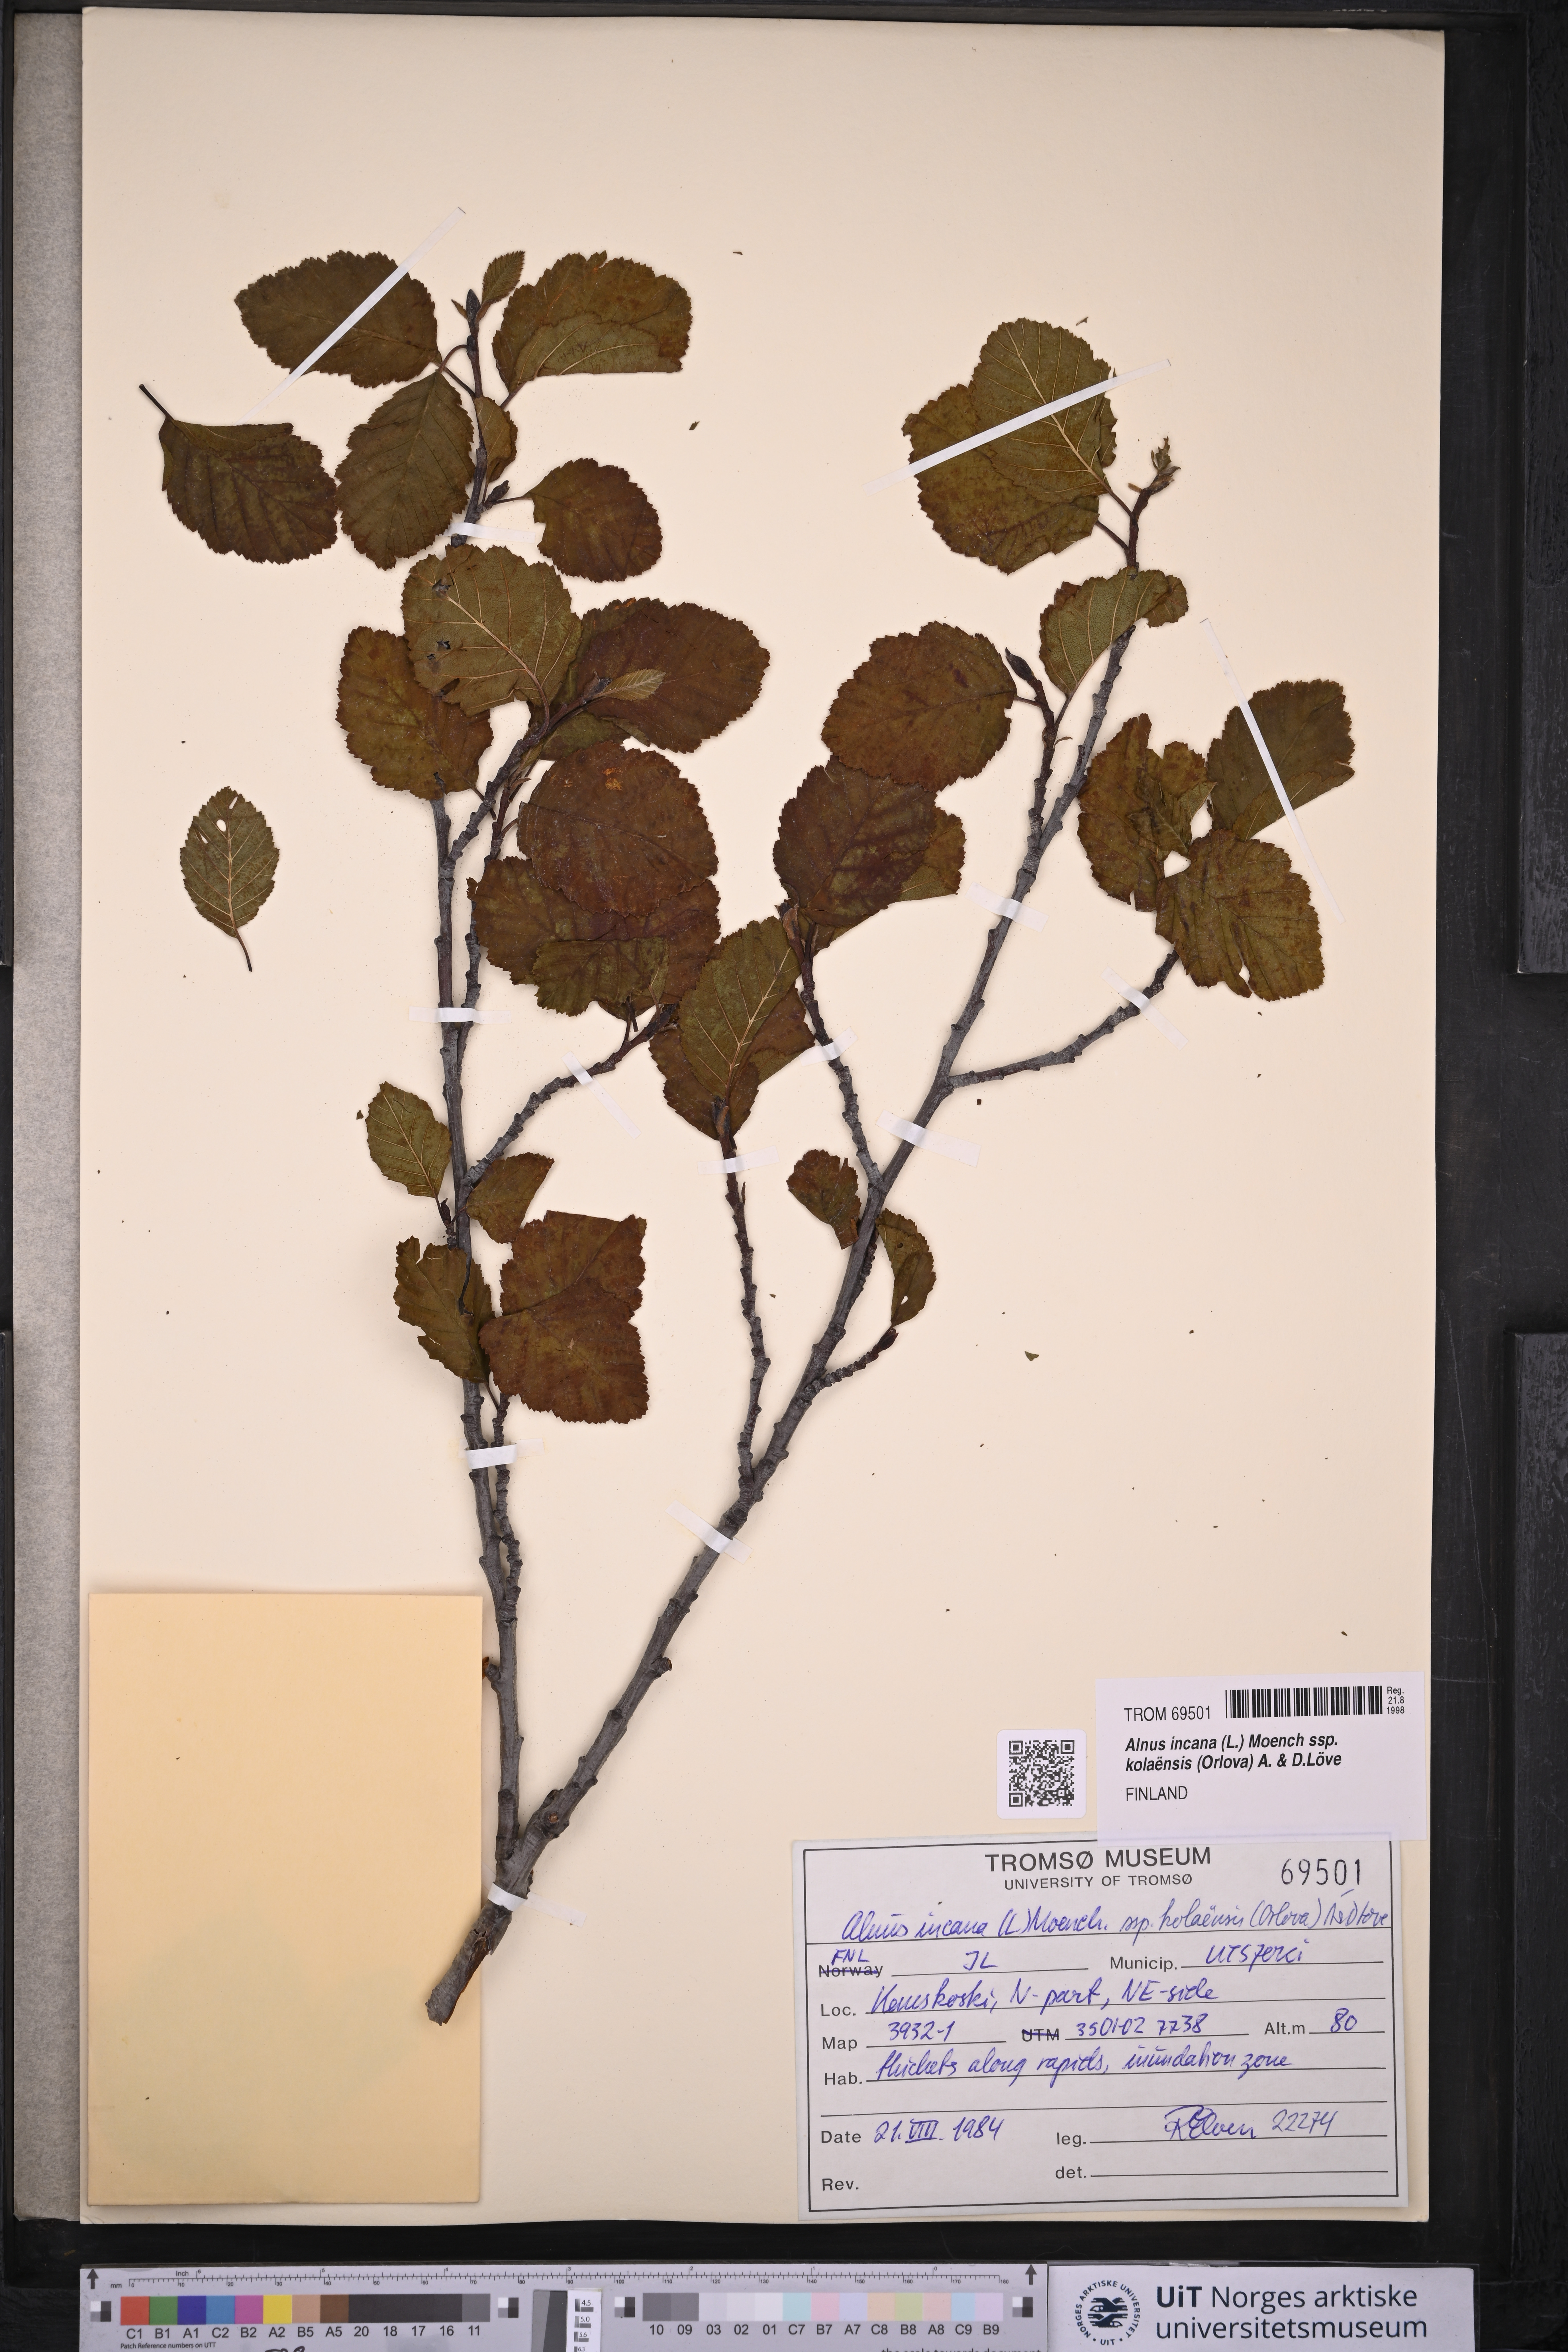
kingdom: Plantae
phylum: Tracheophyta
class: Magnoliopsida
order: Fagales
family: Betulaceae
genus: Alnus
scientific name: Alnus incana
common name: Grey alder
